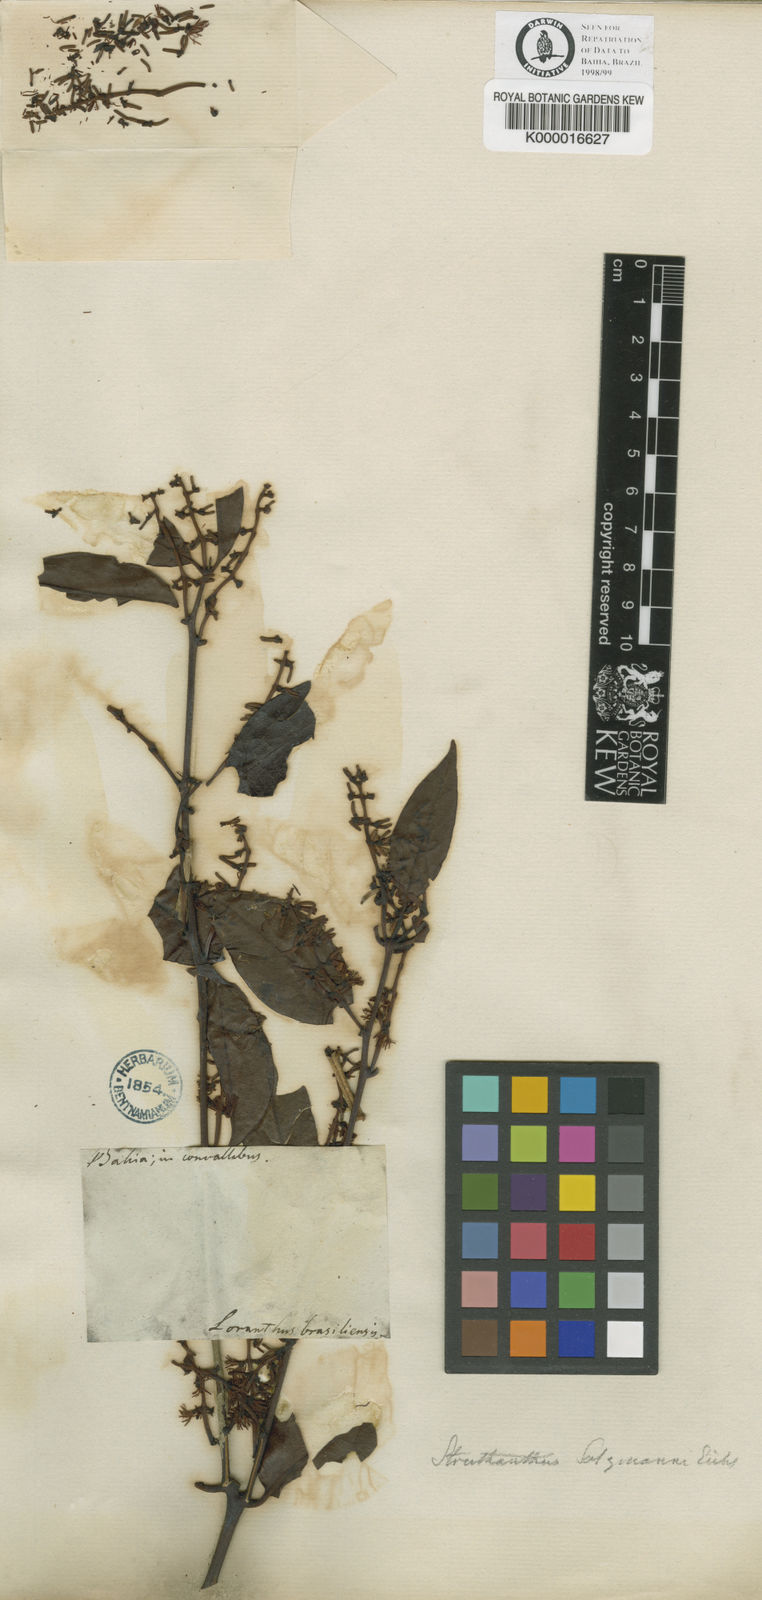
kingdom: Plantae
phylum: Tracheophyta
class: Magnoliopsida
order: Santalales
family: Loranthaceae
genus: Struthanthus
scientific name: Struthanthus
